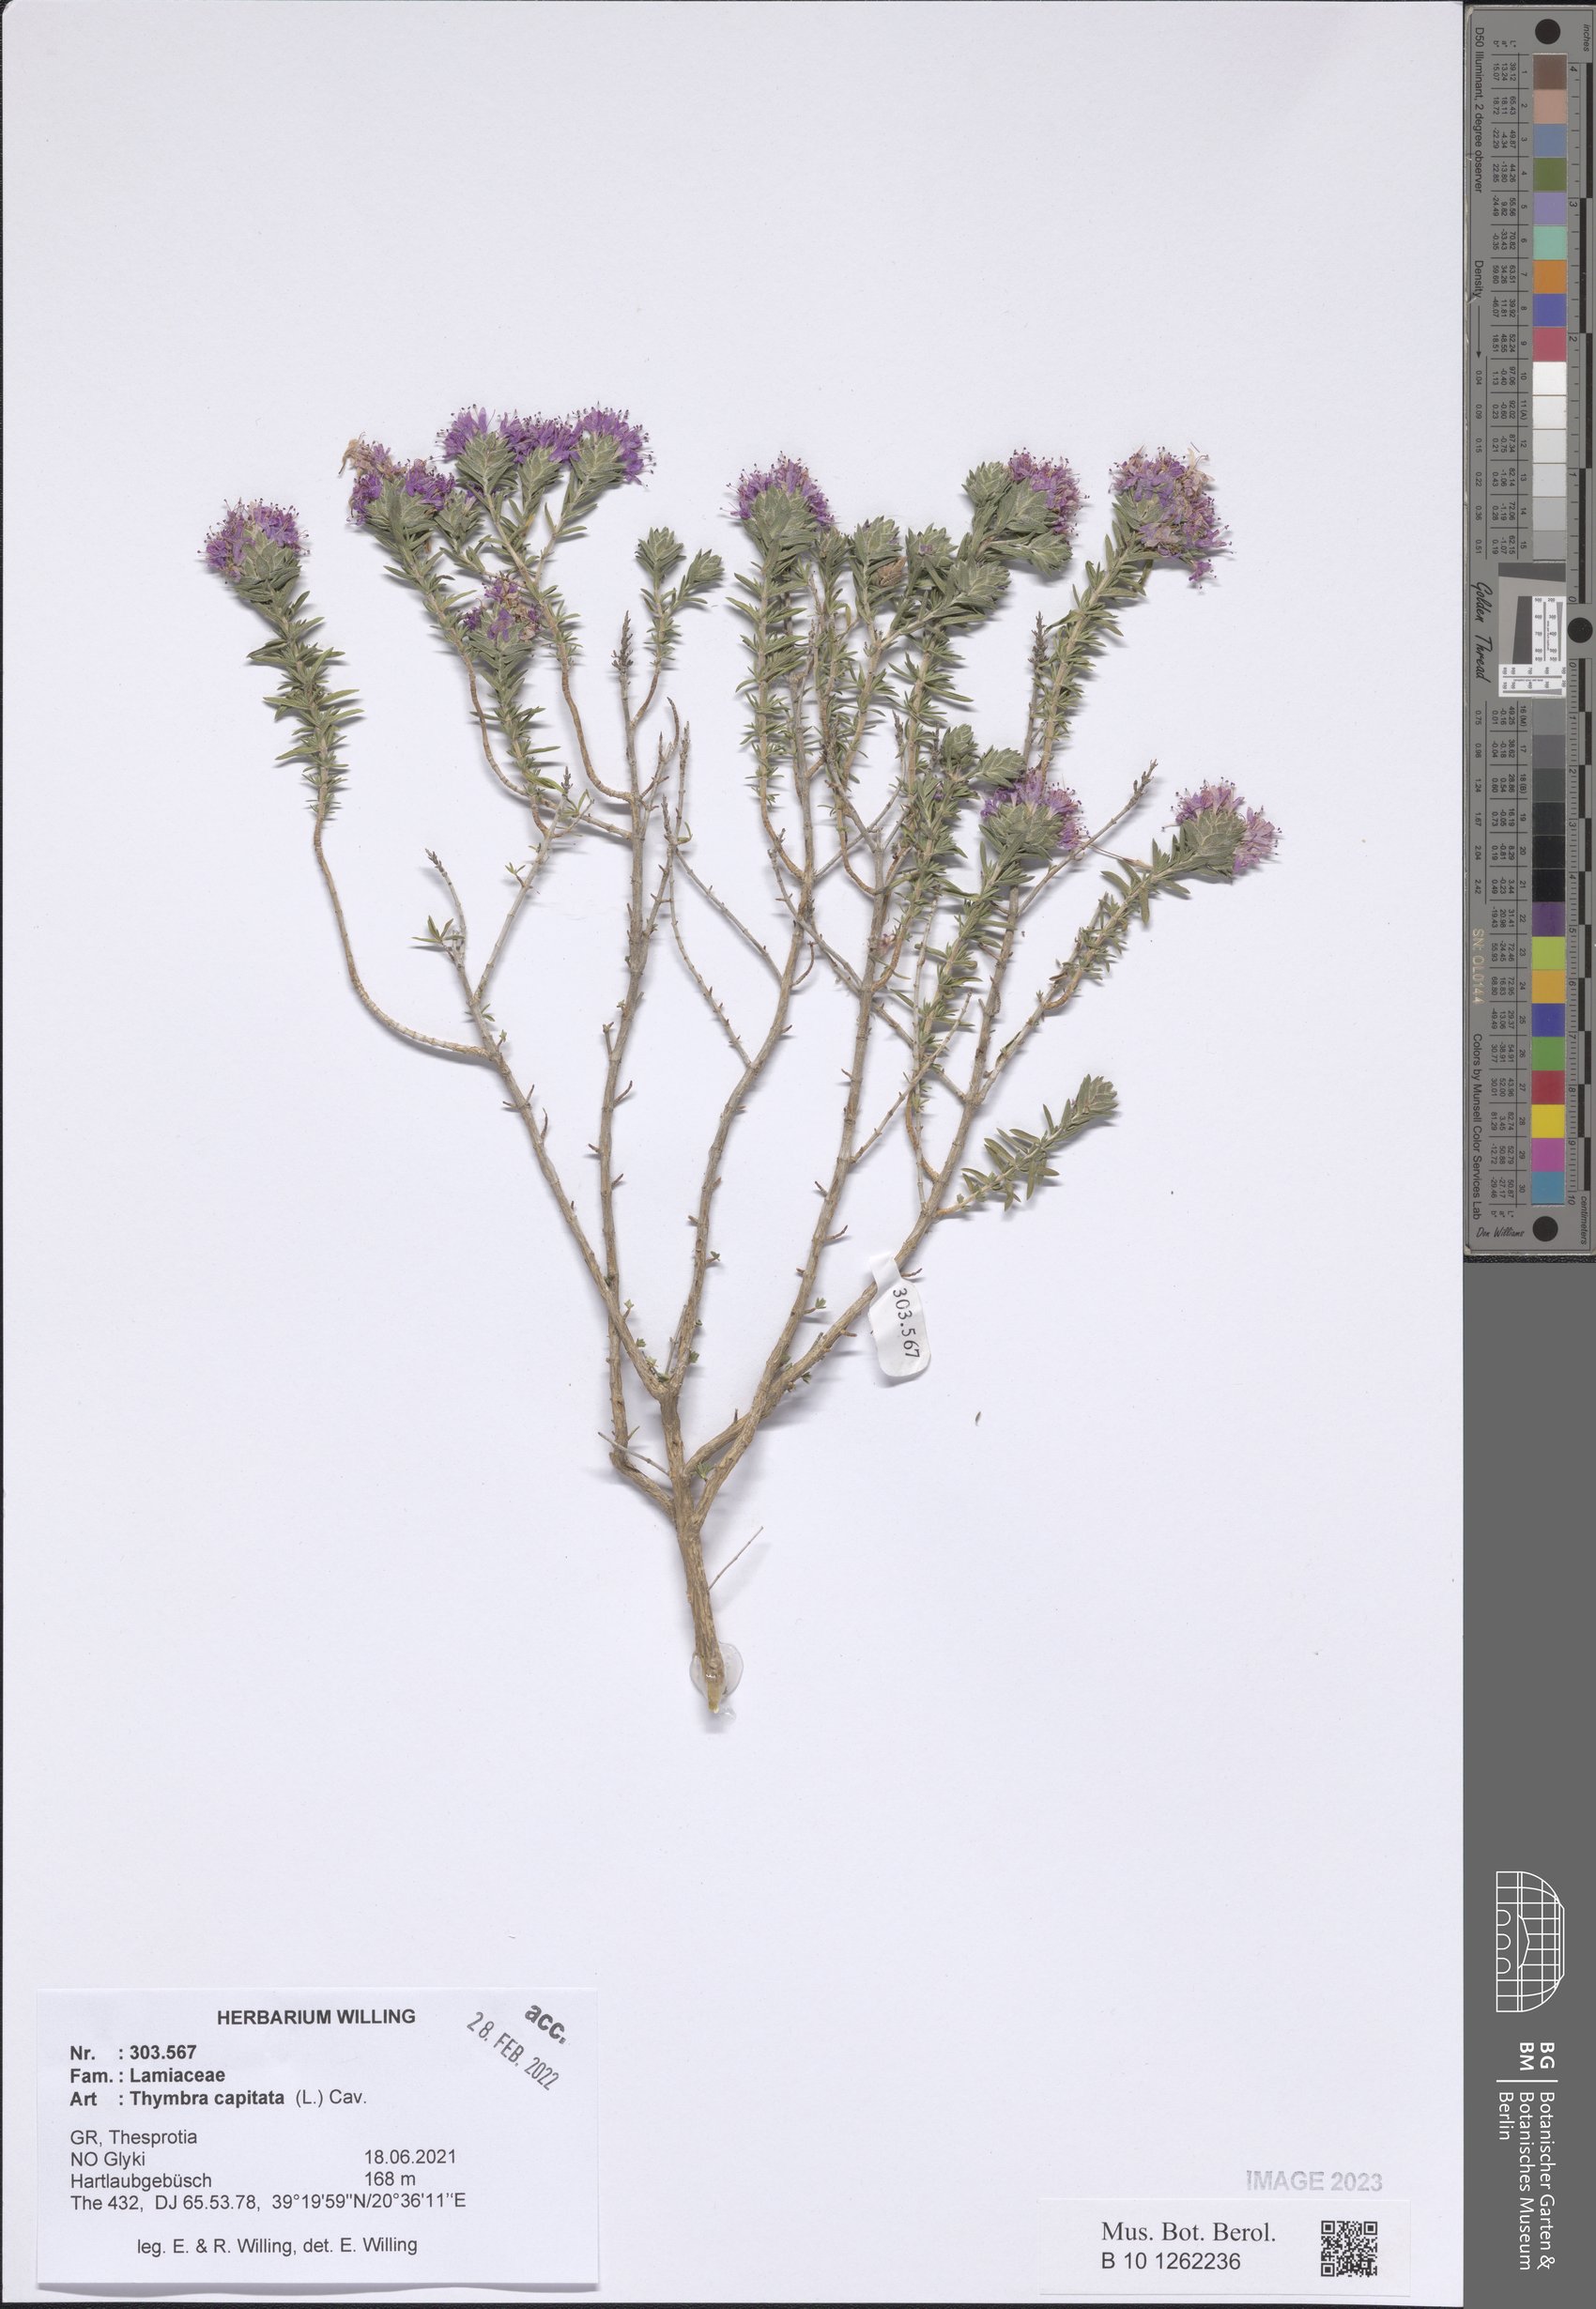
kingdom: Plantae
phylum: Tracheophyta
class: Magnoliopsida
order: Lamiales
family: Lamiaceae
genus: Thymbra
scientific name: Thymbra capitata
